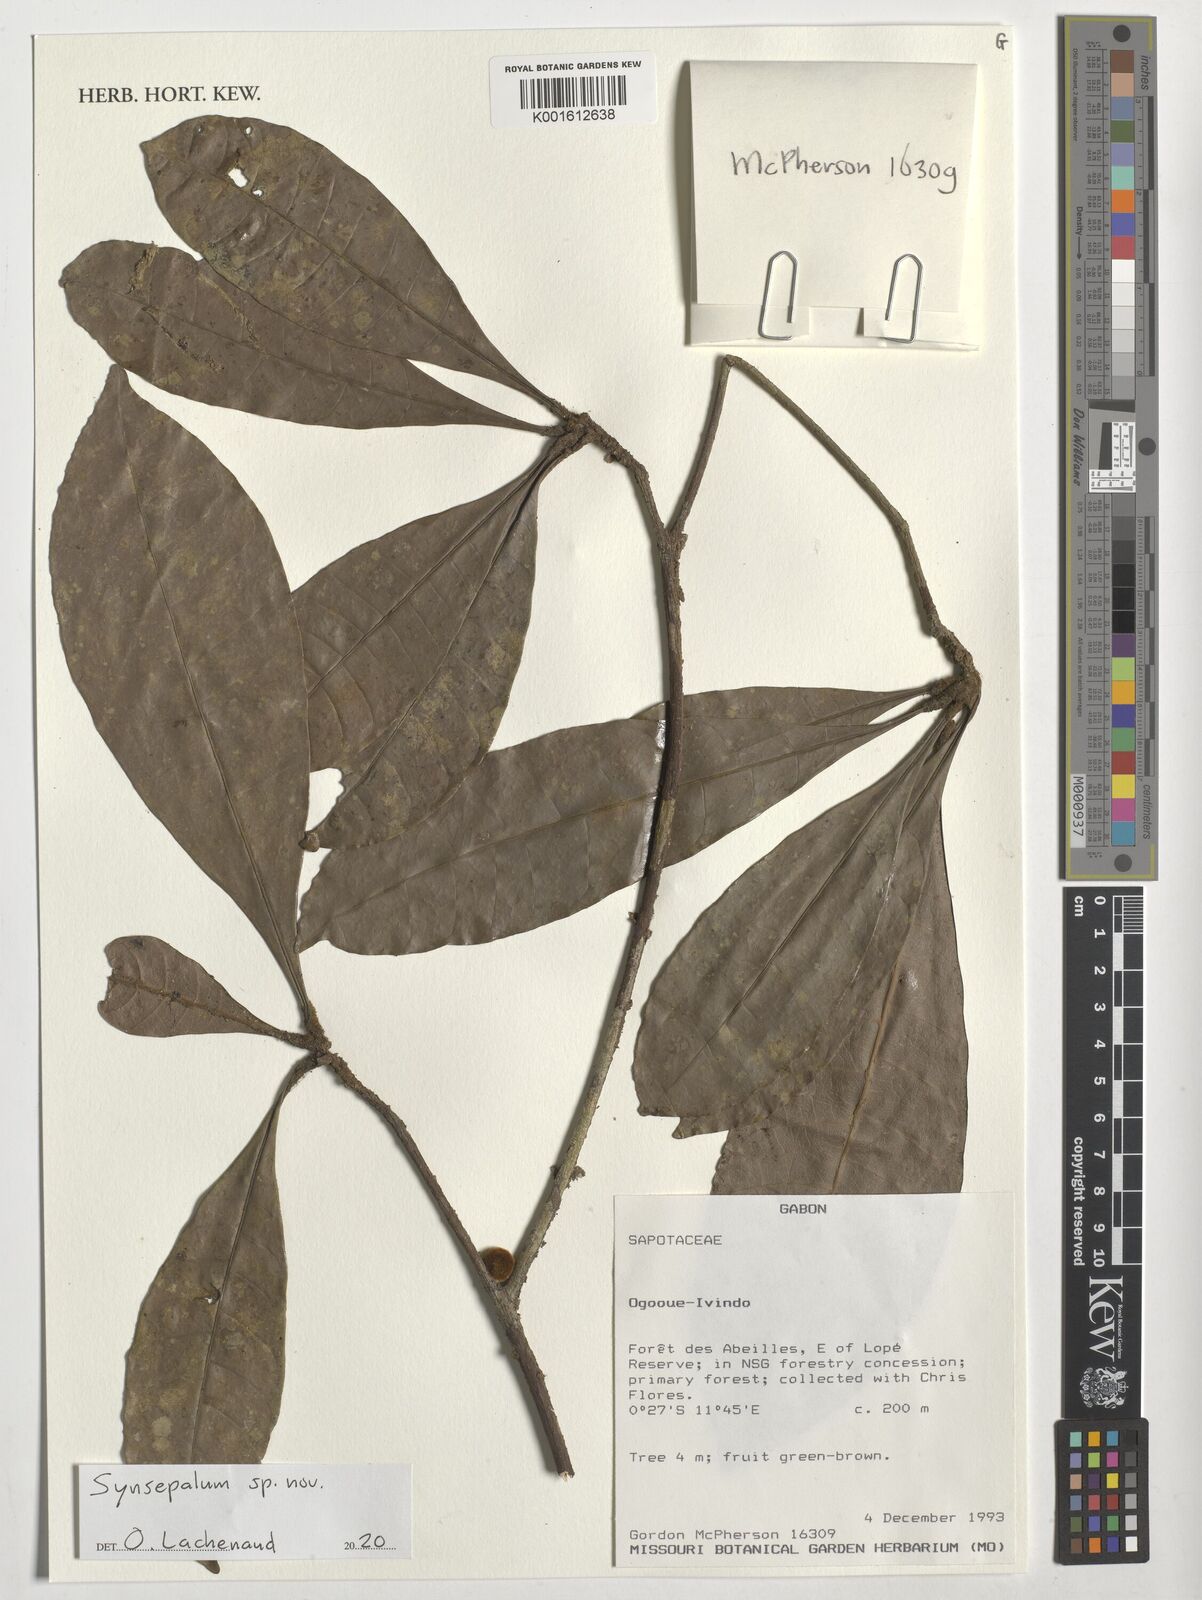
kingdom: Plantae
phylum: Tracheophyta
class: Magnoliopsida
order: Ericales
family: Sapotaceae
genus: Synsepalum
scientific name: Synsepalum
